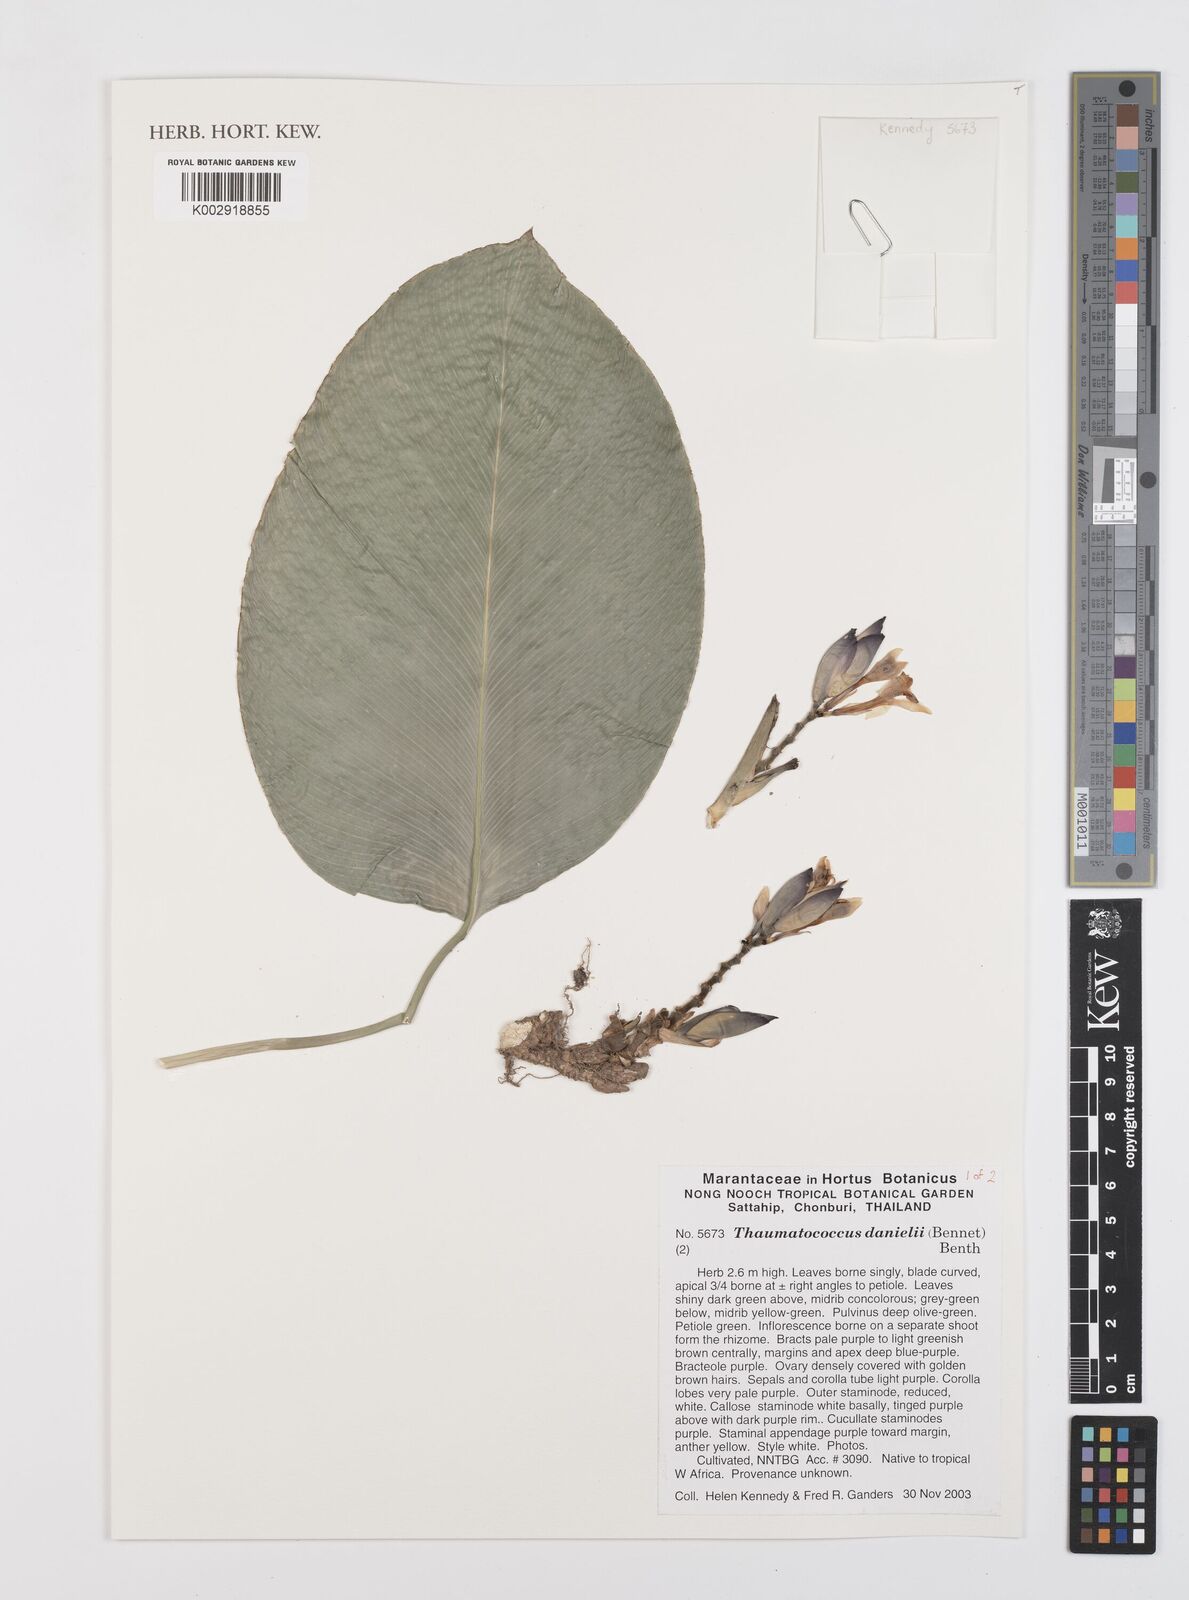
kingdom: Plantae
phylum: Tracheophyta
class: Liliopsida
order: Zingiberales
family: Marantaceae
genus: Thaumatococcus
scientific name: Thaumatococcus daniellii
